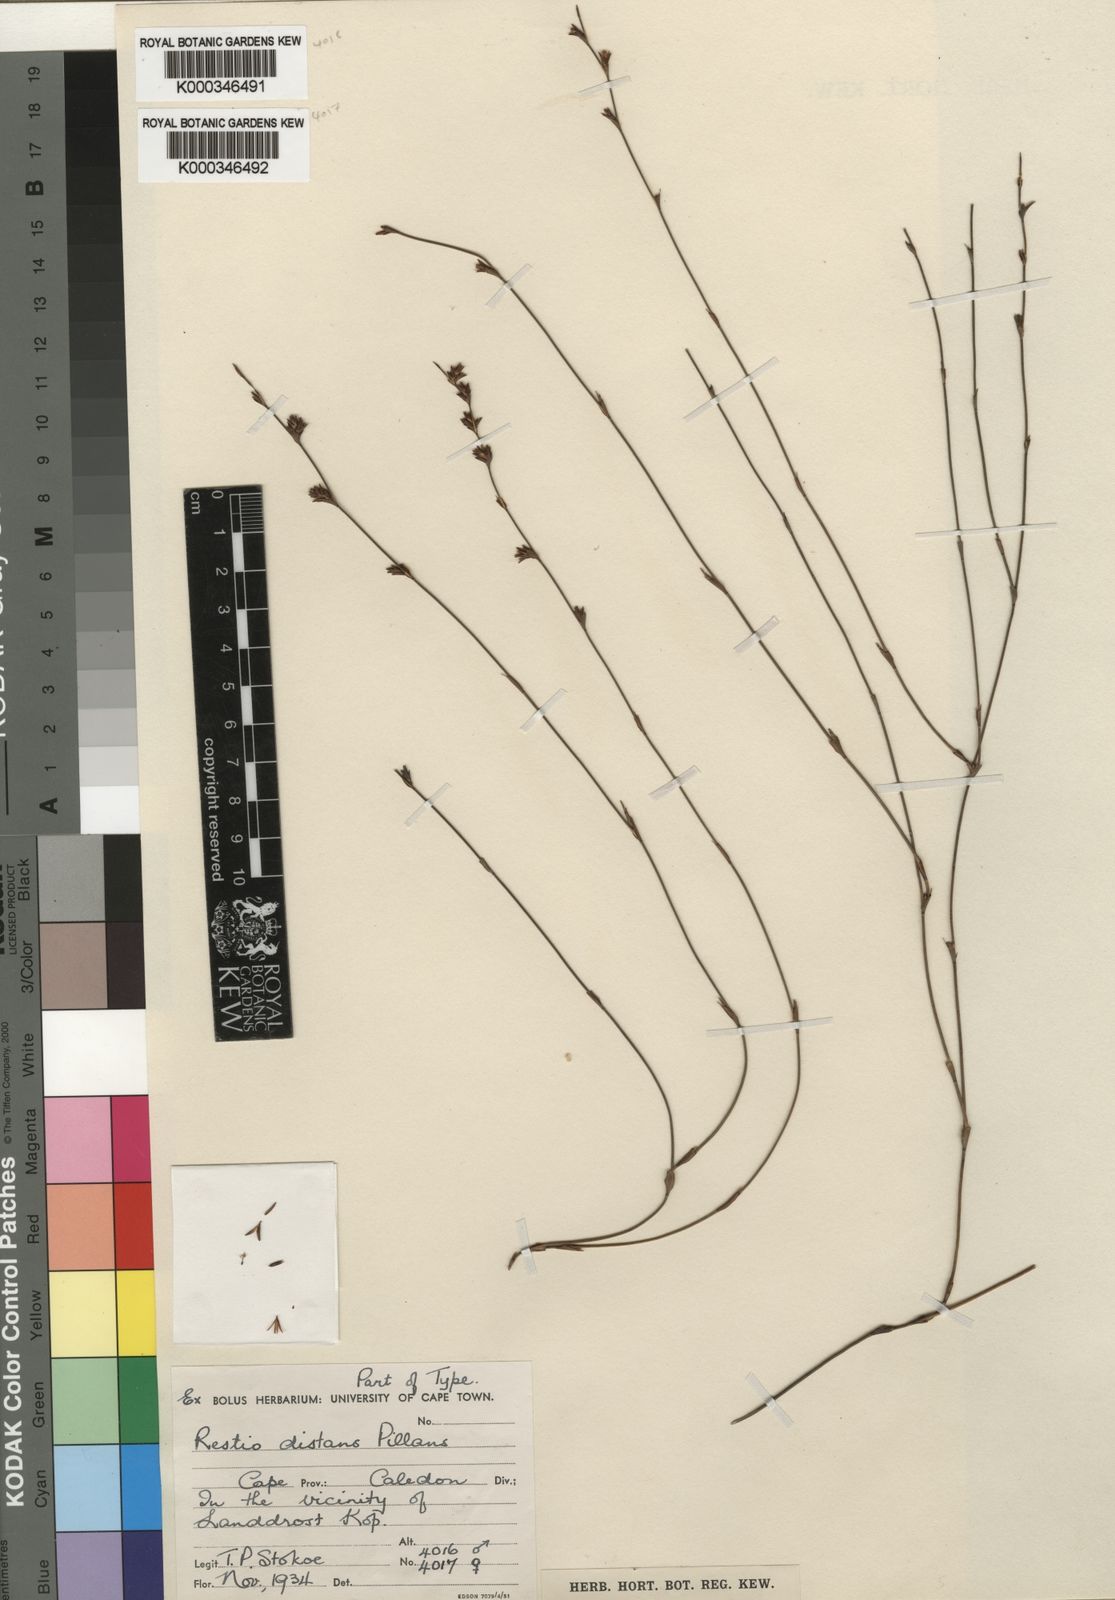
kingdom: Plantae
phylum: Tracheophyta
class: Liliopsida
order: Poales
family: Restionaceae
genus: Restio
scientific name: Restio distans
